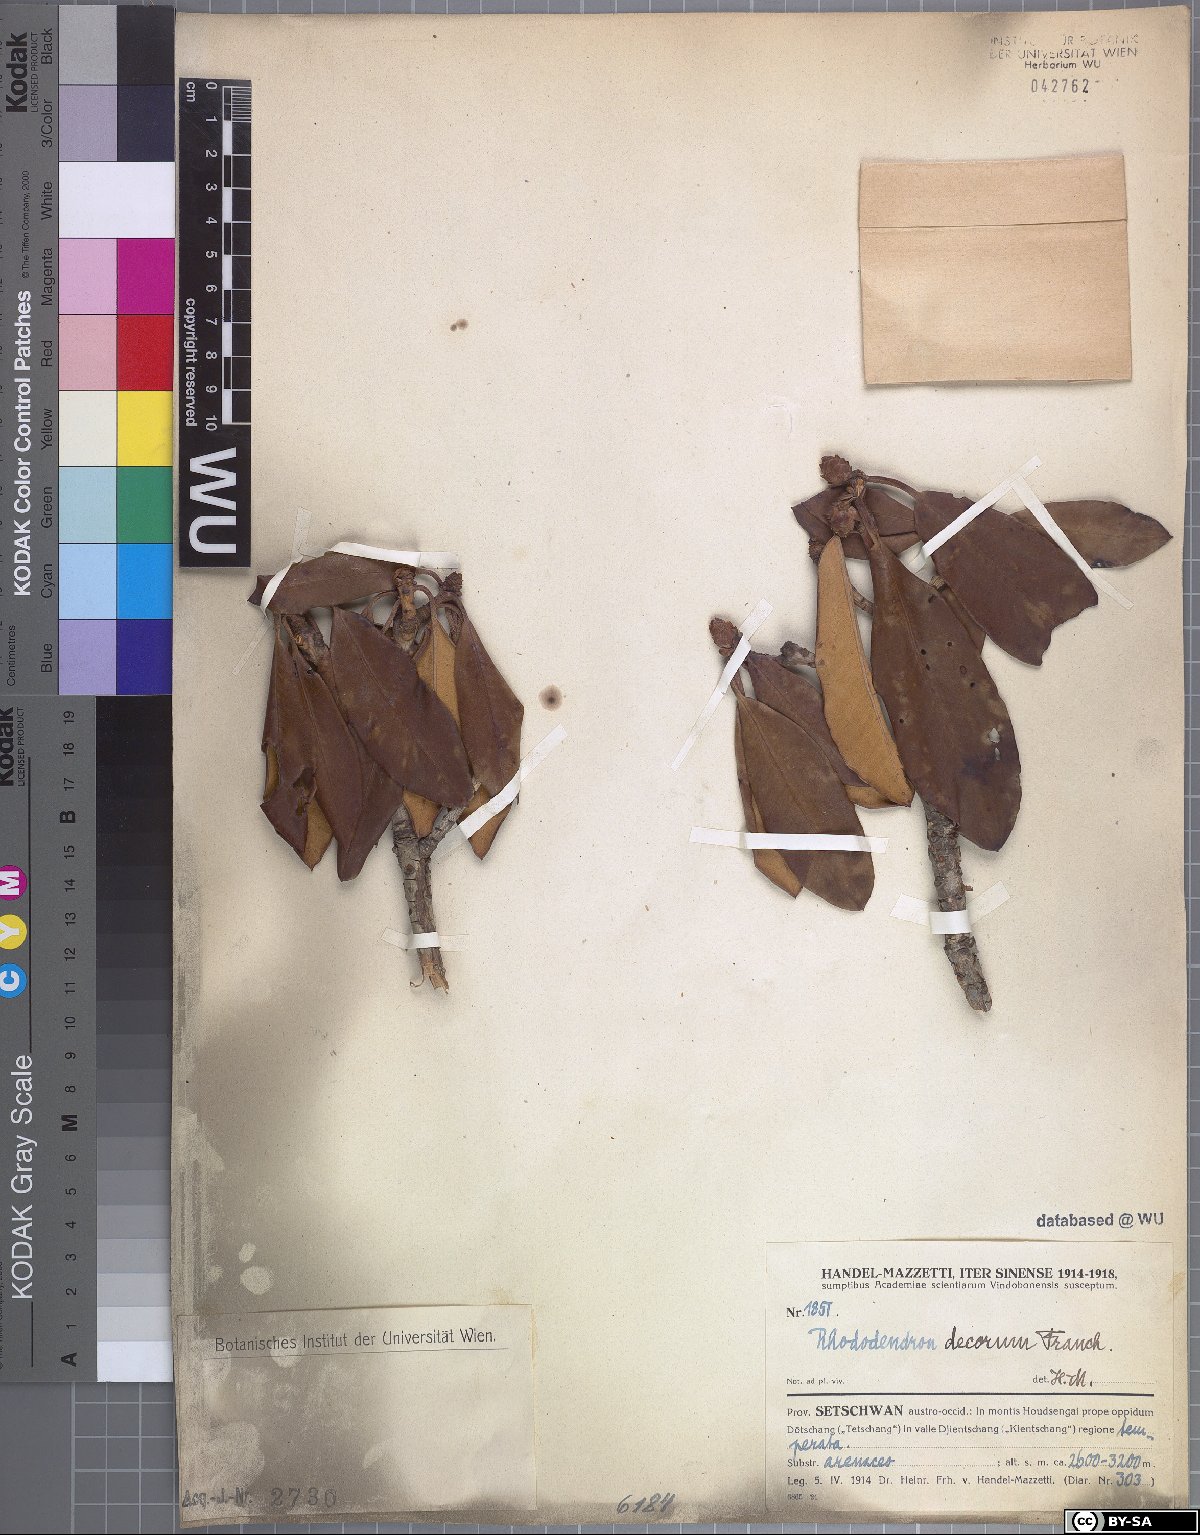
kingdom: Plantae
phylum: Tracheophyta
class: Magnoliopsida
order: Ericales
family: Ericaceae
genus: Rhododendron
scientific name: Rhododendron decorum
